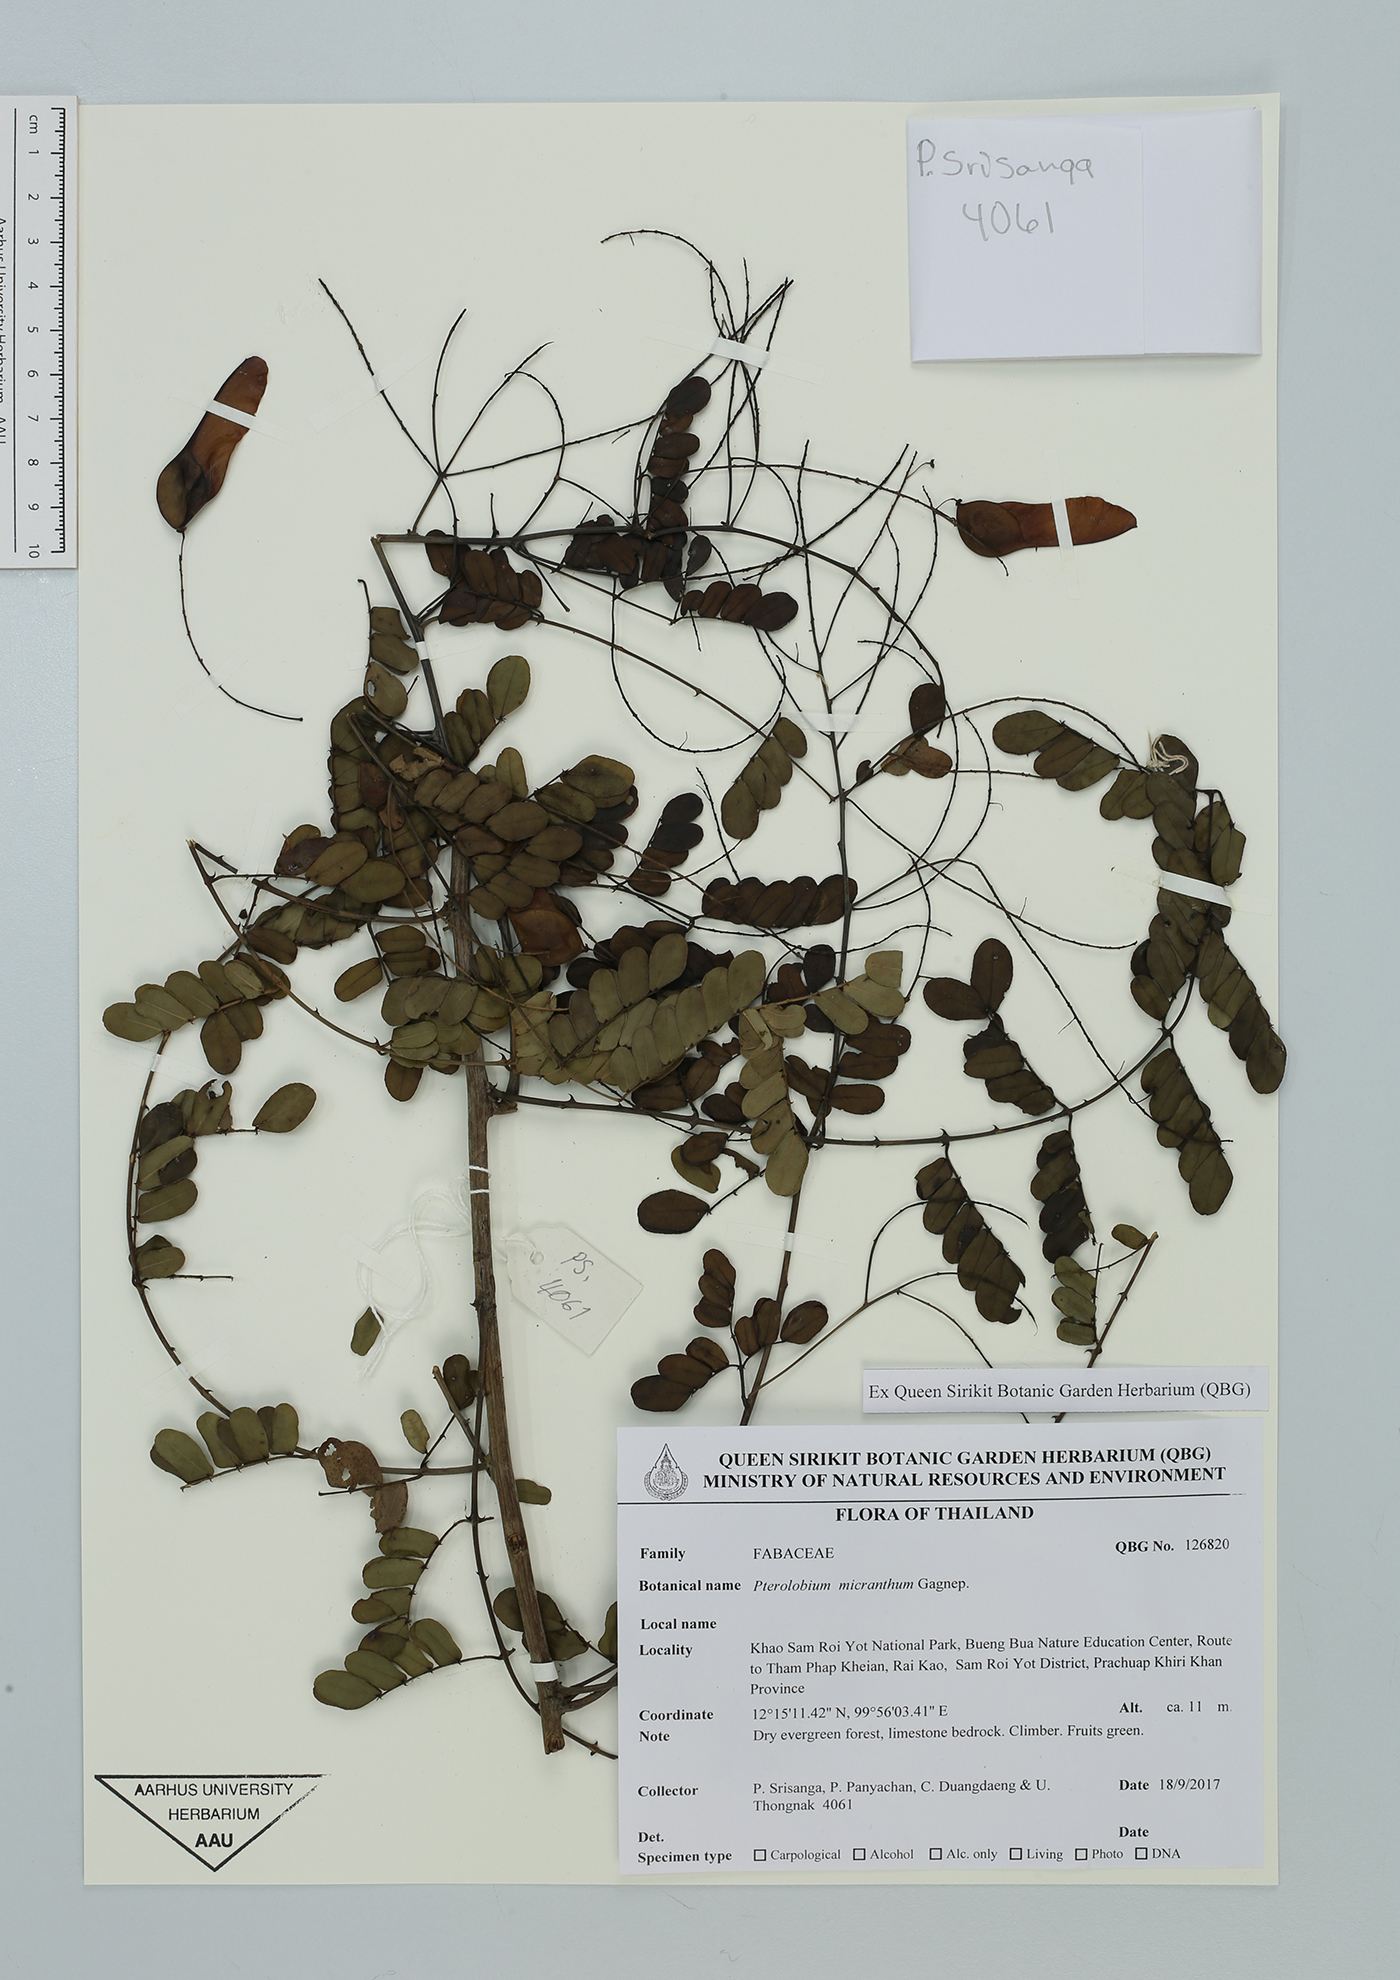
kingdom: Plantae
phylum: Tracheophyta
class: Magnoliopsida
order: Fabales
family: Fabaceae
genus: Pterolobium
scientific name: Pterolobium micranthum
